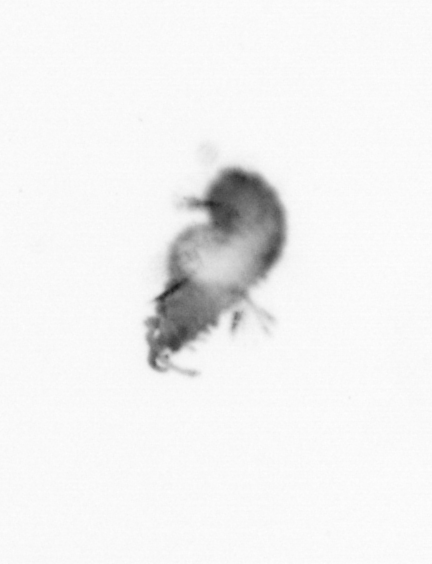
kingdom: Animalia
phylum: Annelida
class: Polychaeta
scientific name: Polychaeta
